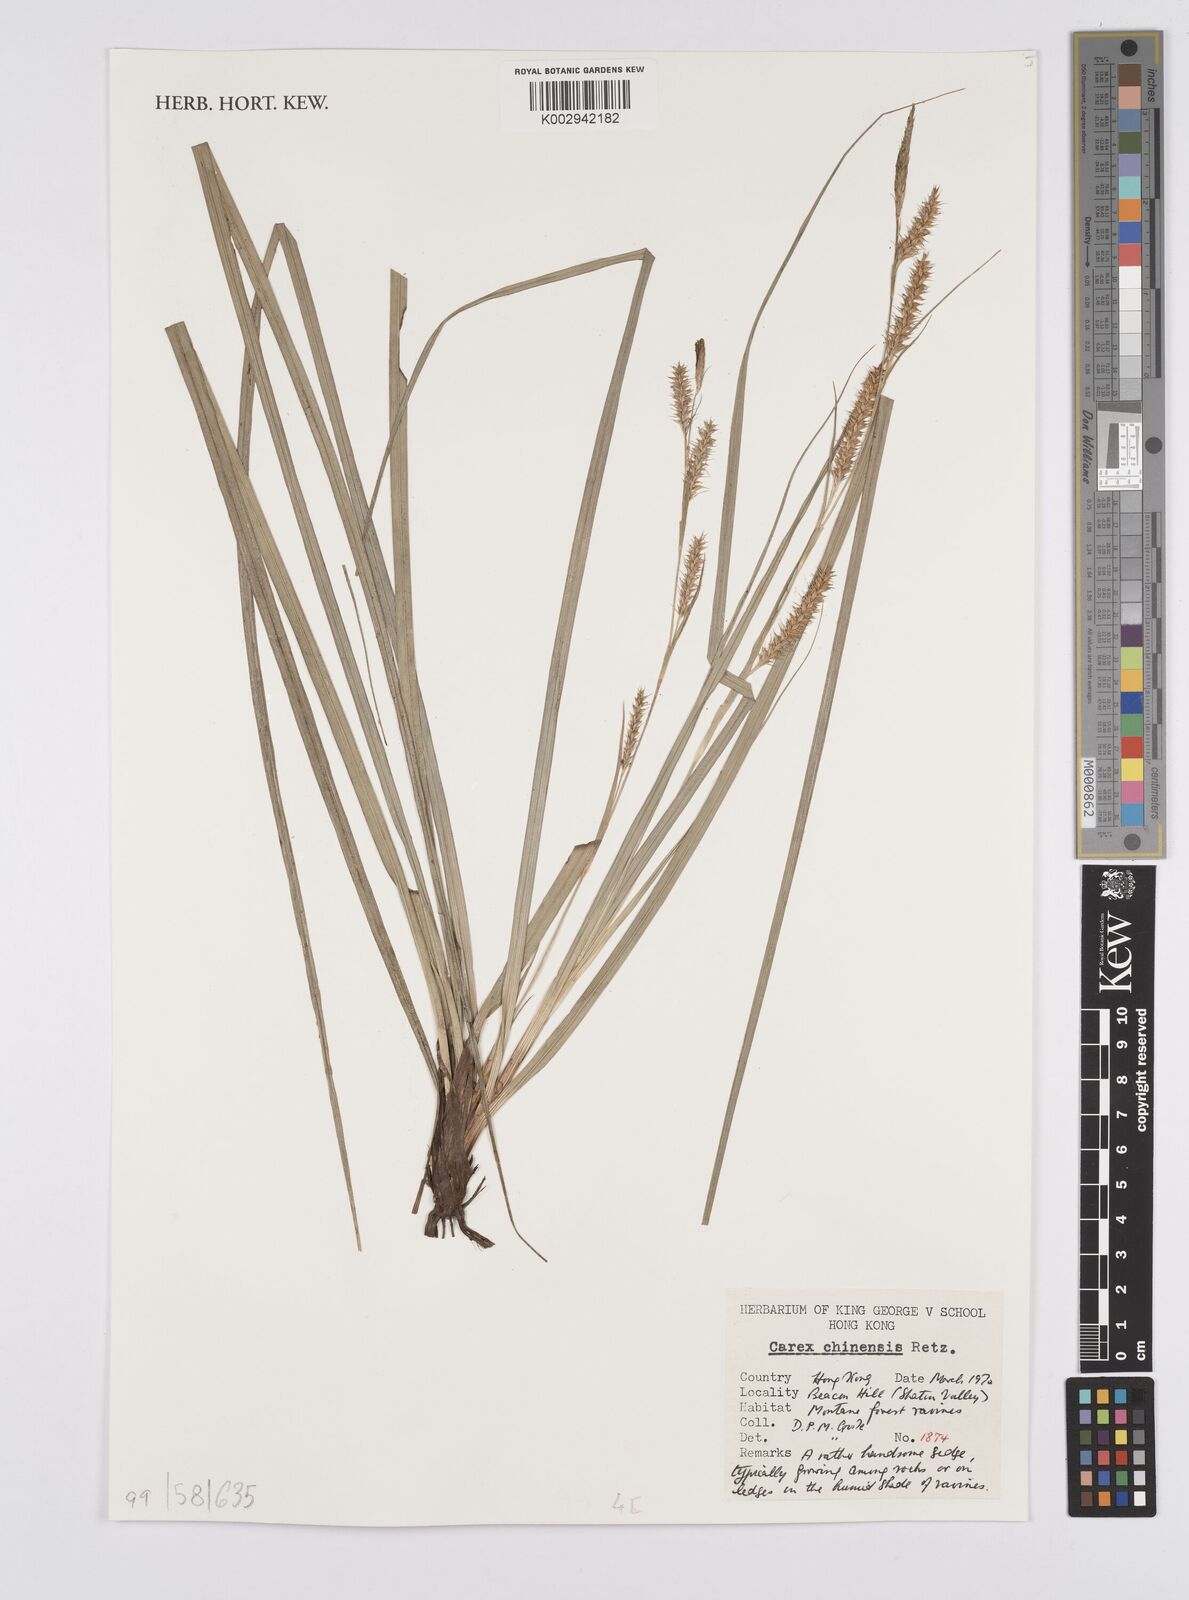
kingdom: Plantae
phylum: Tracheophyta
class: Liliopsida
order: Poales
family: Cyperaceae
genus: Carex
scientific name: Carex chinensis
